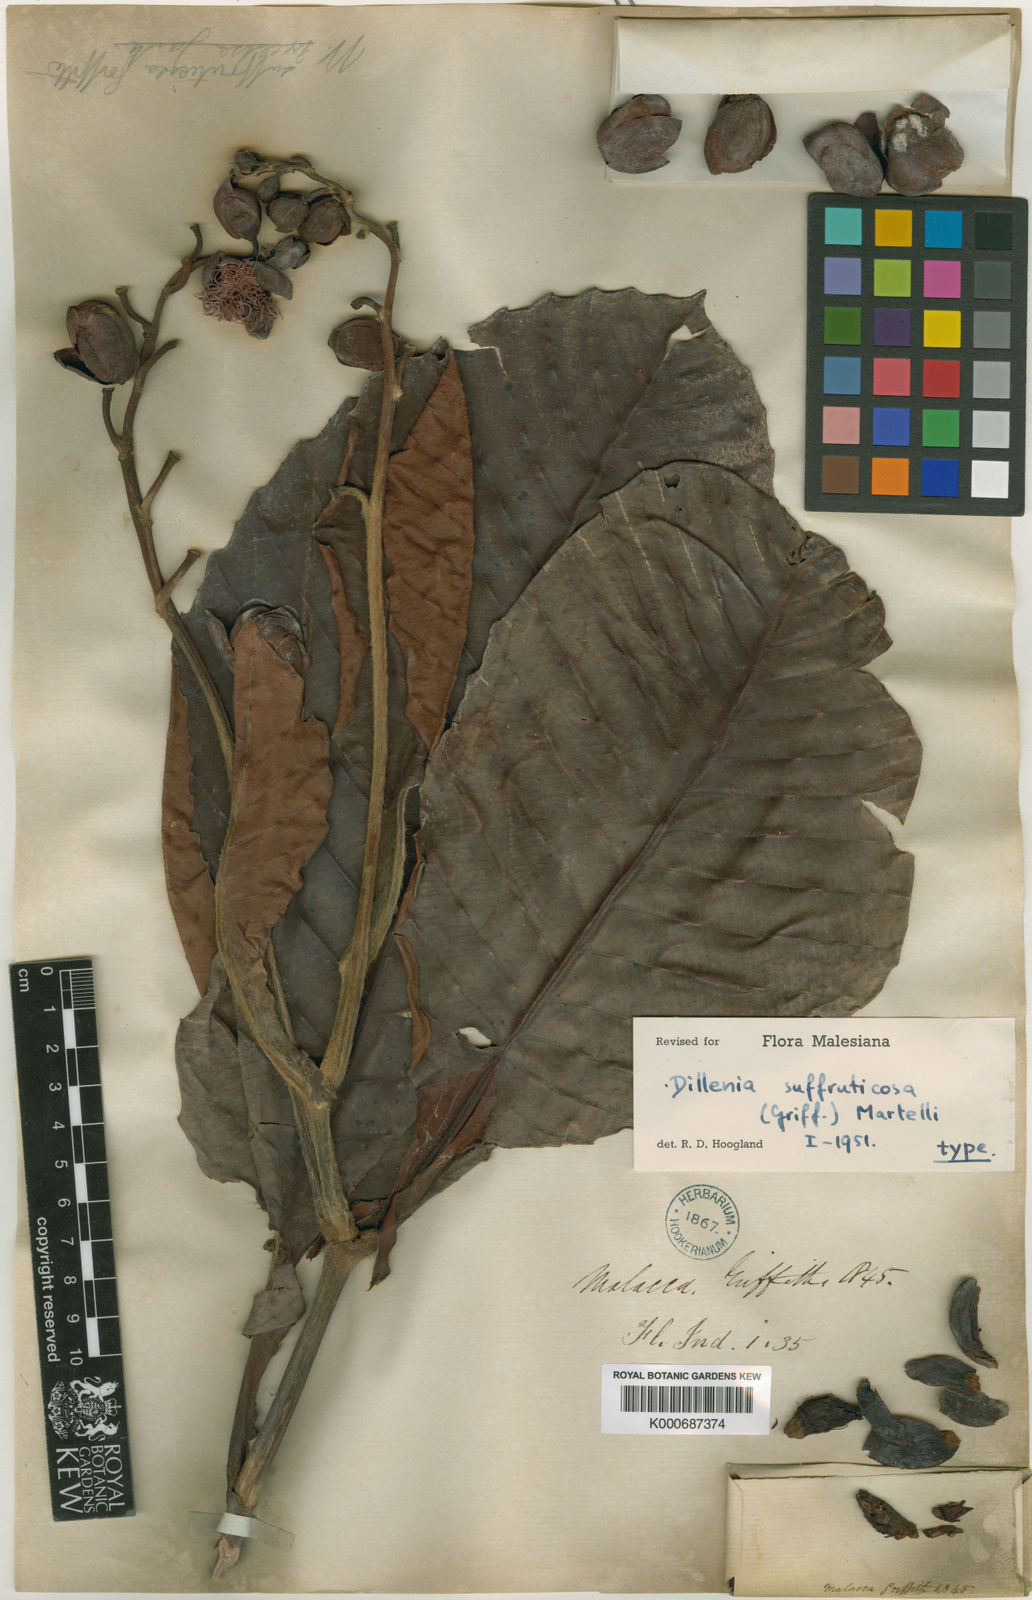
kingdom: Plantae
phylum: Tracheophyta
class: Magnoliopsida
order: Dilleniales
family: Dilleniaceae
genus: Dillenia
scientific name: Dillenia suffruticosa
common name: Shrubby dillenia
